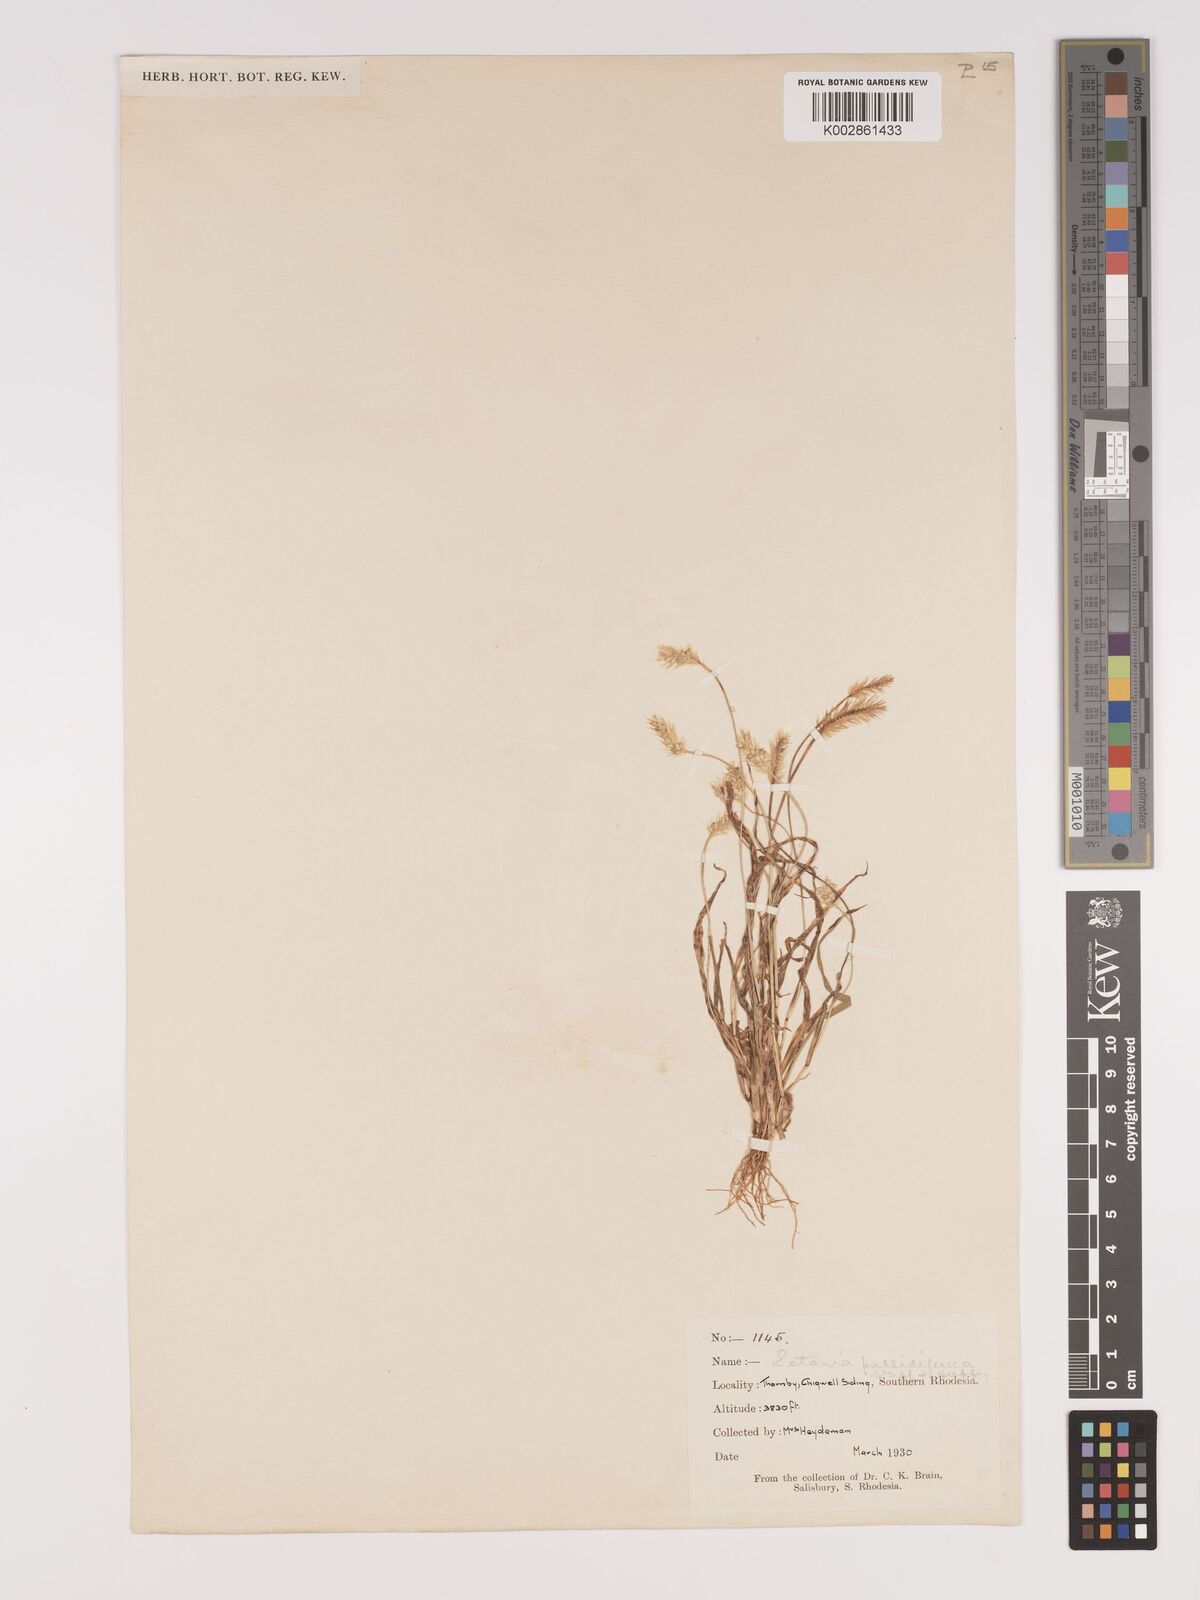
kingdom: Plantae
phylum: Tracheophyta
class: Liliopsida
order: Poales
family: Poaceae
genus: Setaria
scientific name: Setaria pumila
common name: Yellow bristle-grass
